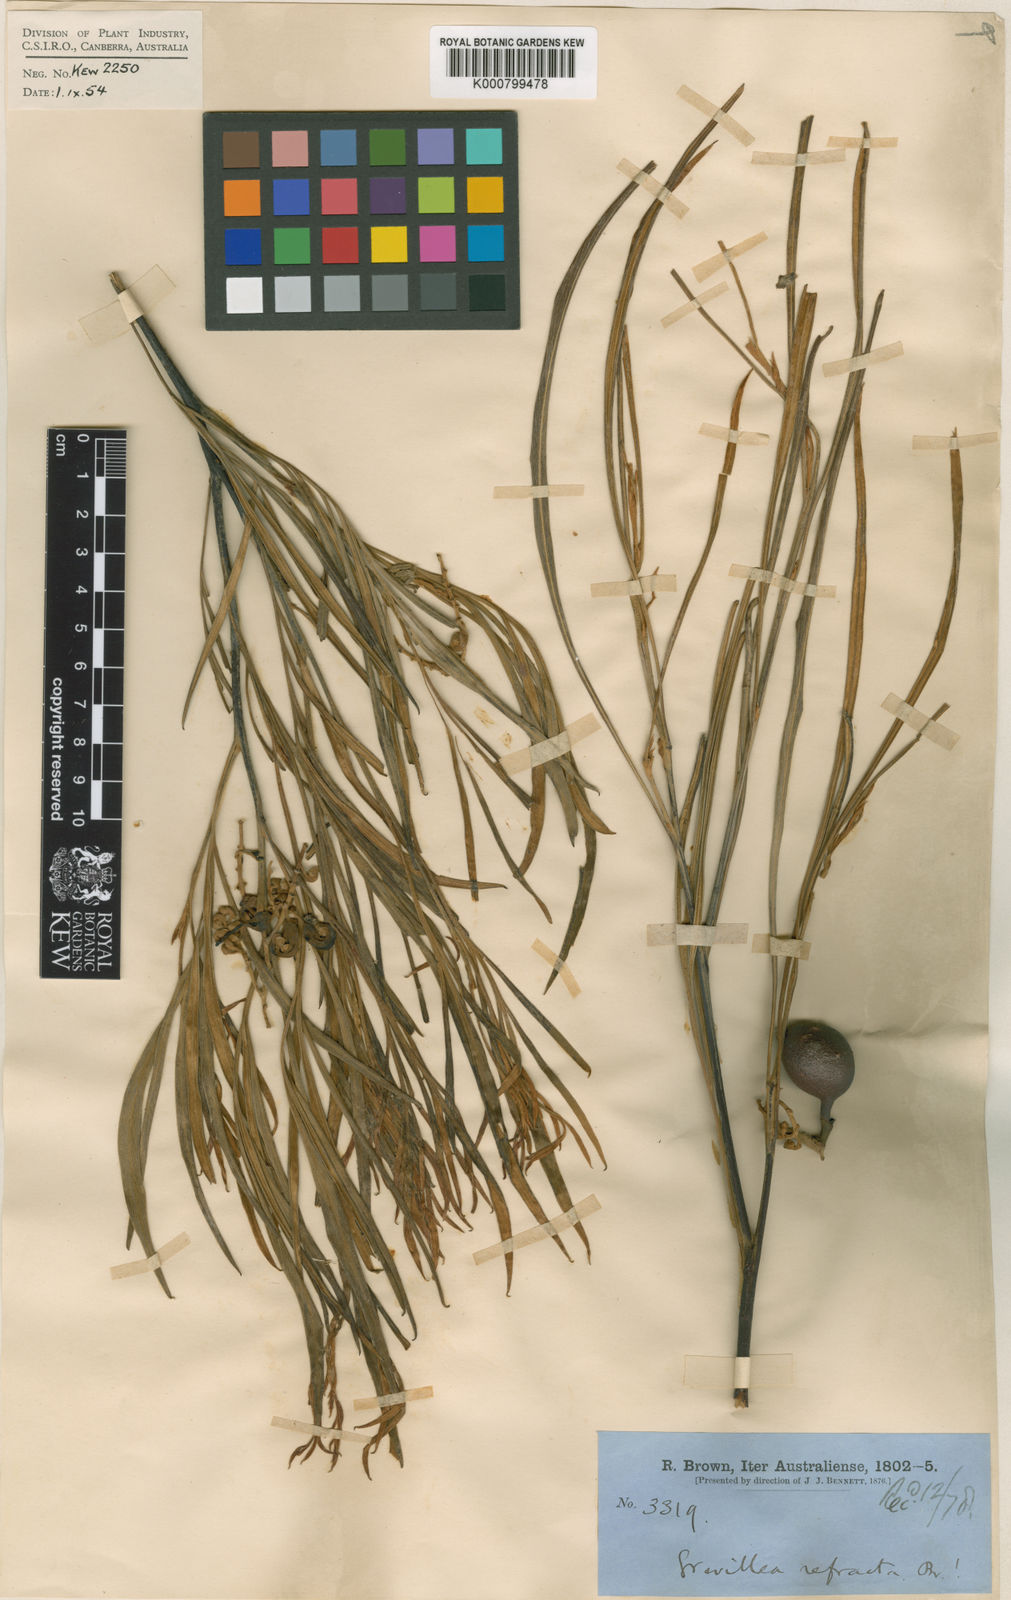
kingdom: Plantae
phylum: Tracheophyta
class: Magnoliopsida
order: Proteales
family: Proteaceae
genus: Grevillea
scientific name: Grevillea refracta
